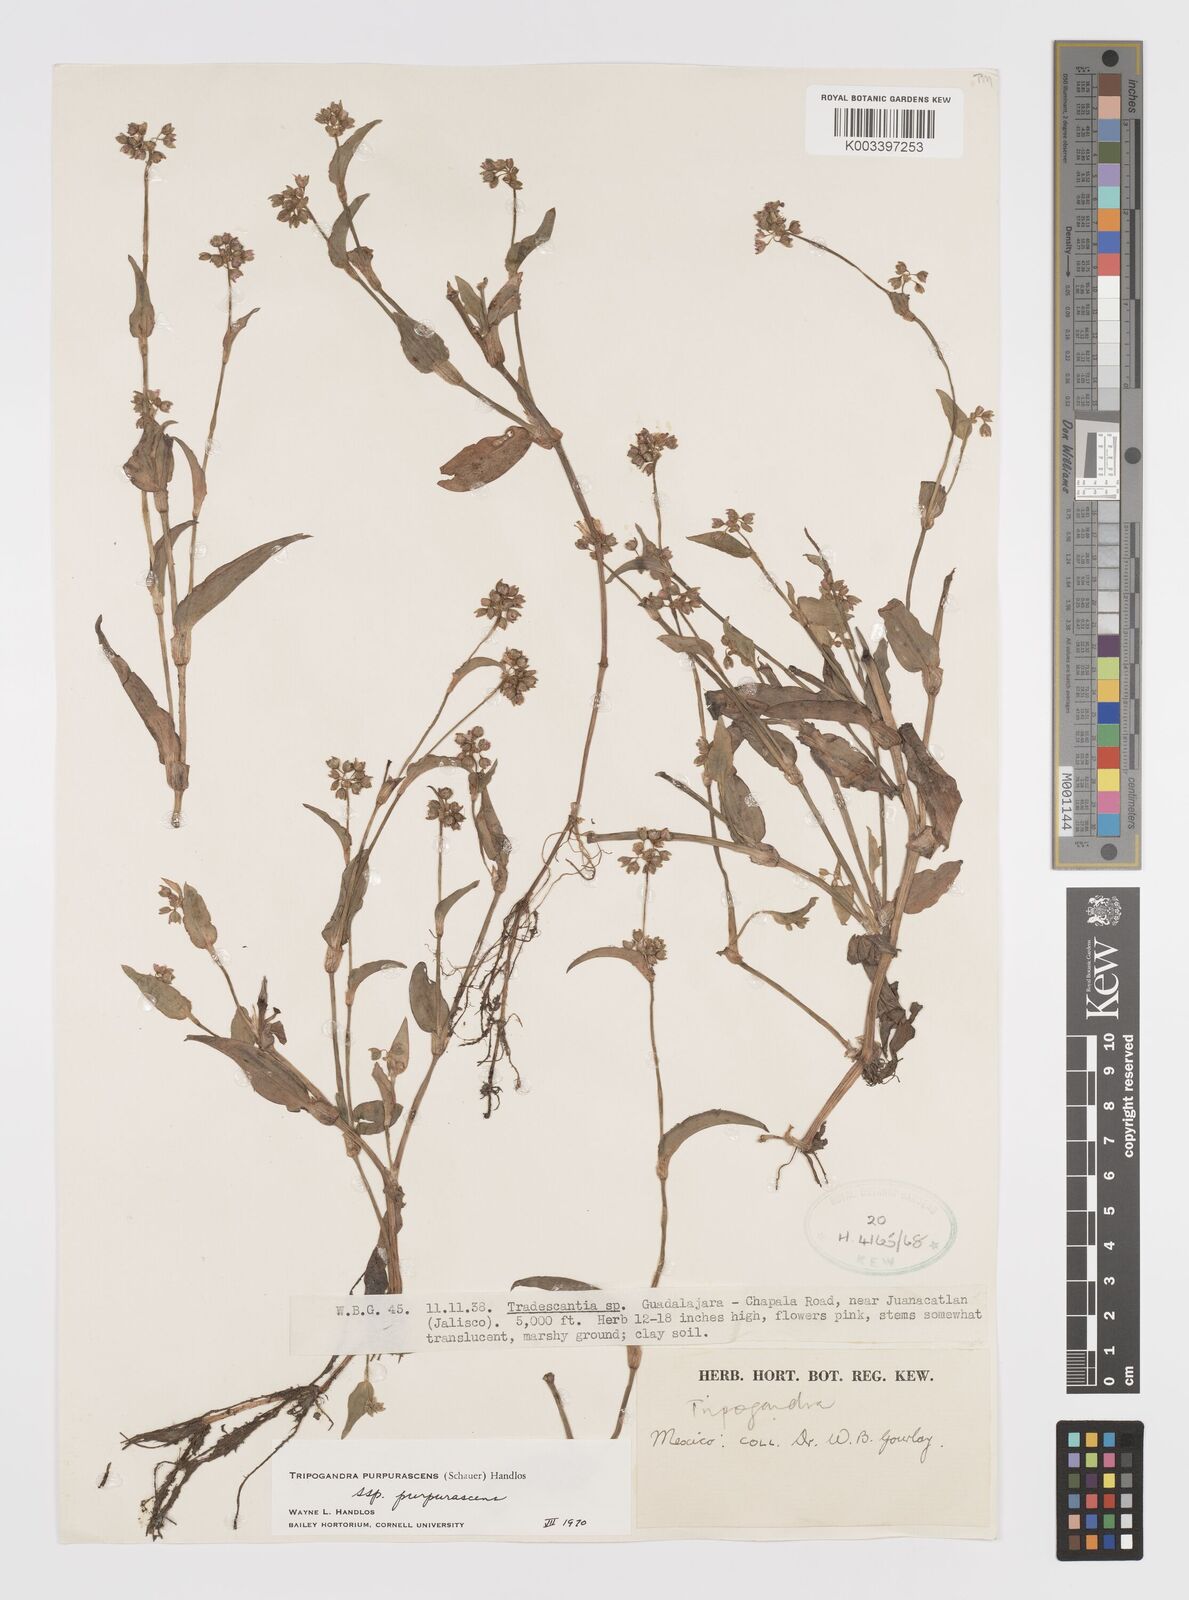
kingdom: Plantae
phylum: Tracheophyta
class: Liliopsida
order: Commelinales
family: Commelinaceae
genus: Callisia
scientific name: Callisia purpurascens
